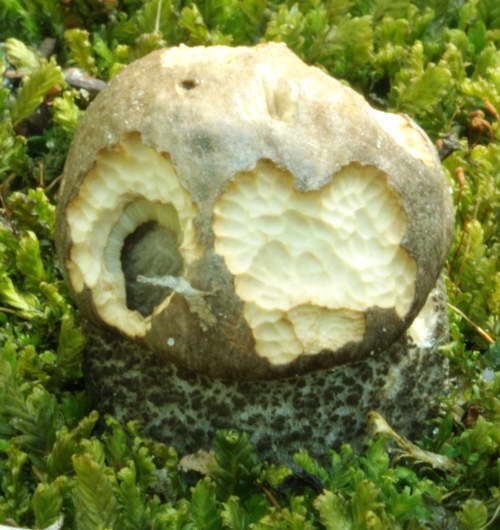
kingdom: Fungi
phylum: Basidiomycota
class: Agaricomycetes
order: Boletales
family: Boletaceae
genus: Leccinum
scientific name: Leccinum scabrum
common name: brun skælrørhat
